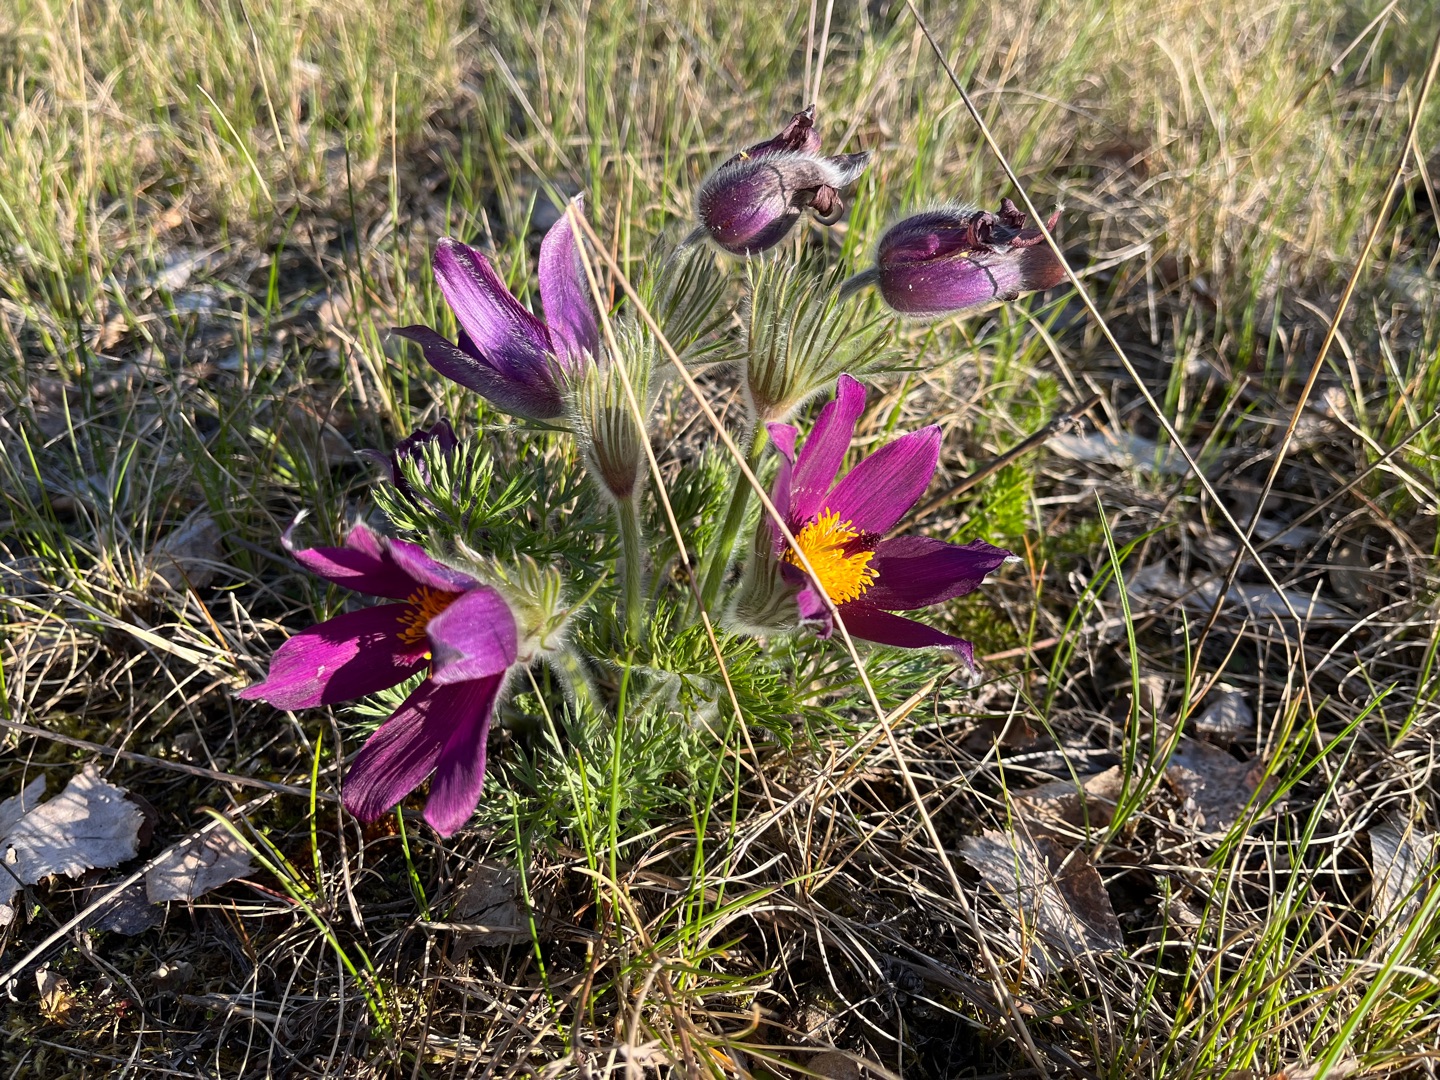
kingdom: Plantae
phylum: Tracheophyta
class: Magnoliopsida
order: Ranunculales
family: Ranunculaceae
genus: Pulsatilla
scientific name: Pulsatilla vulgaris
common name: Opret kobjælde
